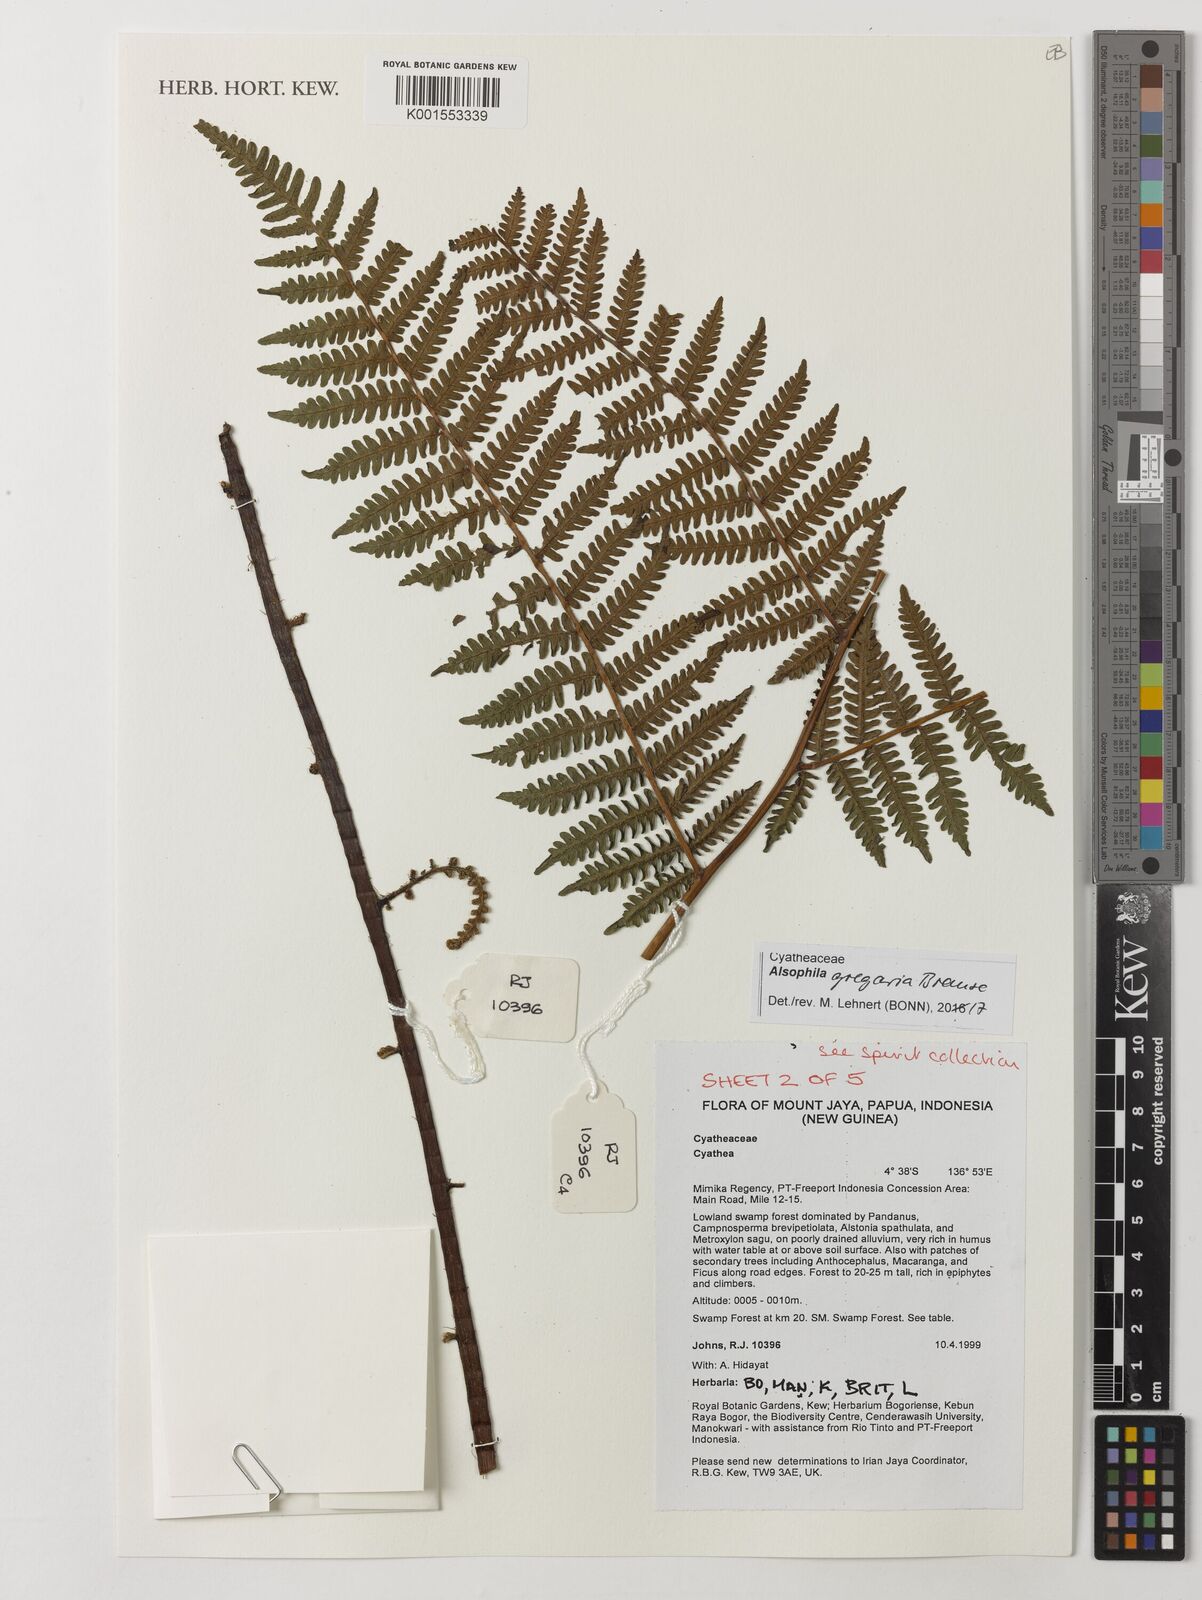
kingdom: Plantae
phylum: Tracheophyta
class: Polypodiopsida
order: Cyatheales
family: Cyatheaceae
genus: Alsophila
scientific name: Alsophila gregaria
